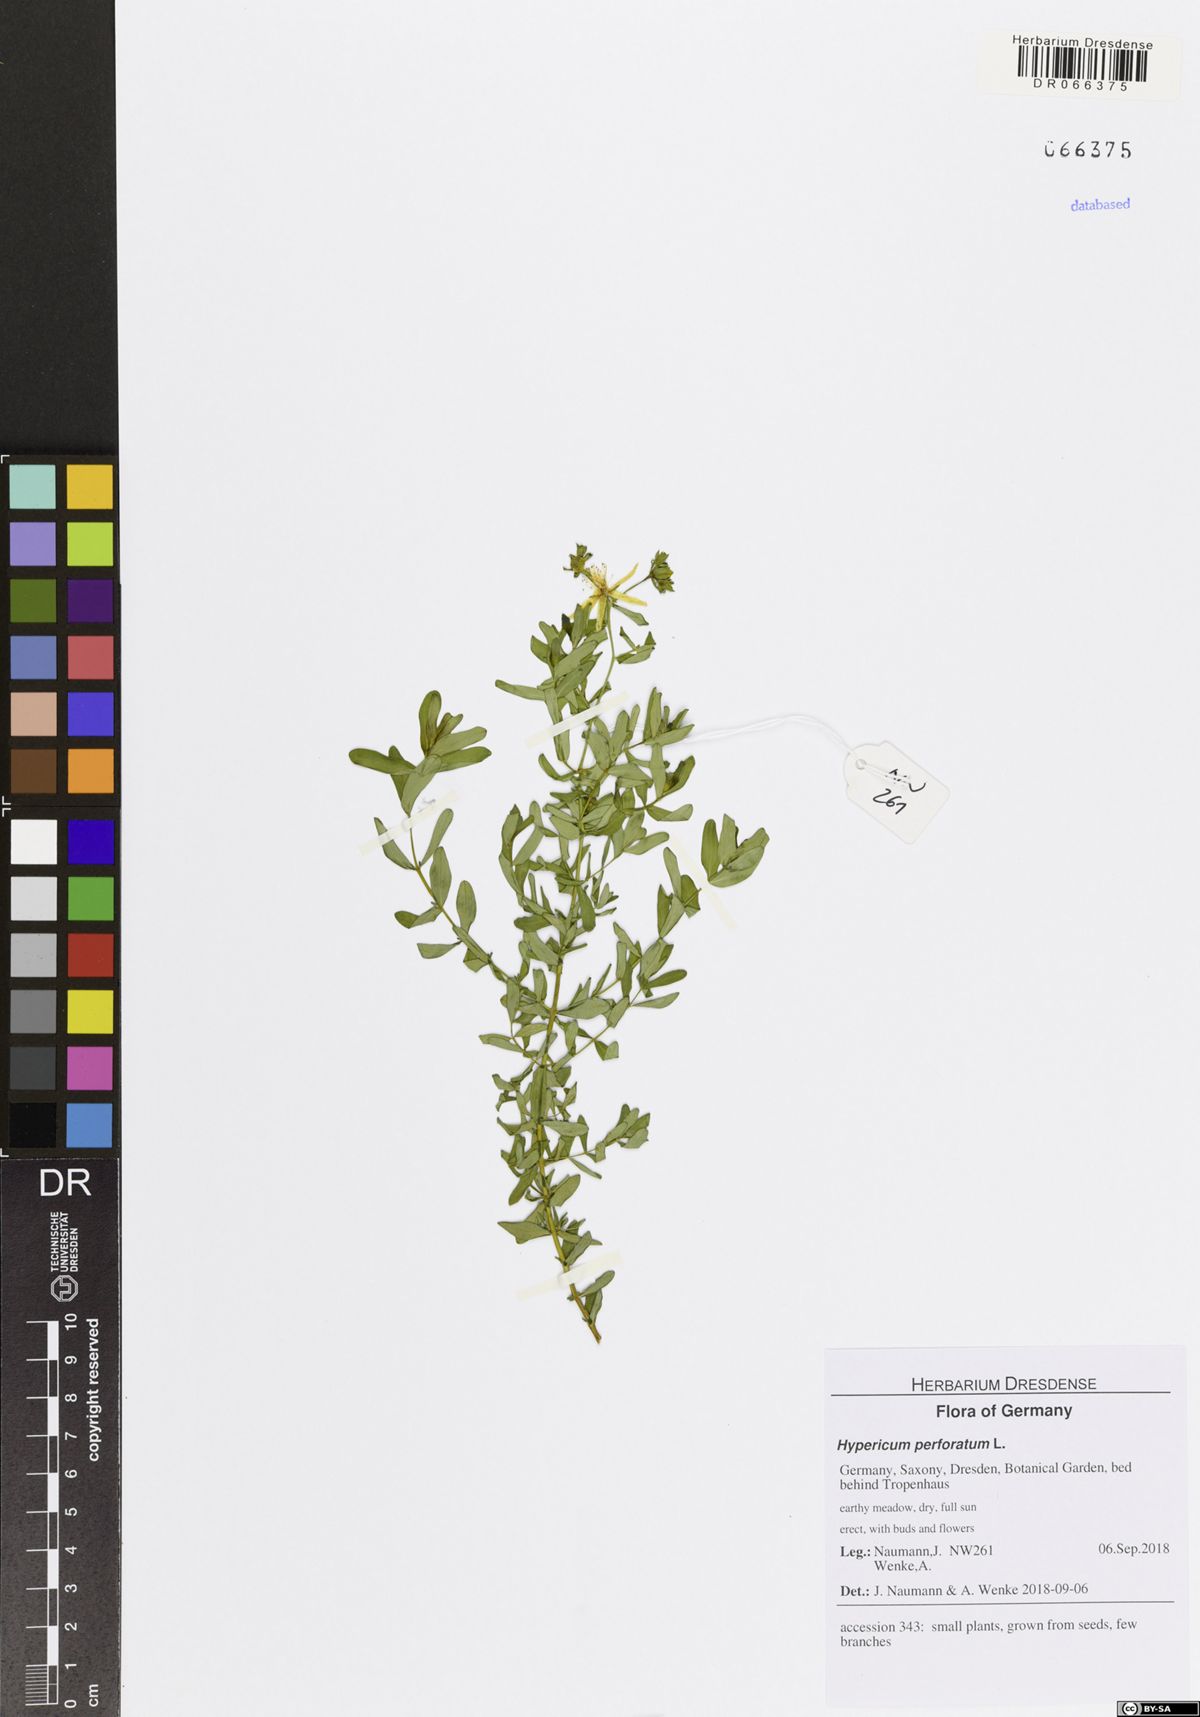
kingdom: Plantae
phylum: Tracheophyta
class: Magnoliopsida
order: Malpighiales
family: Hypericaceae
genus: Hypericum
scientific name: Hypericum perforatum
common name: Common st. johnswort
